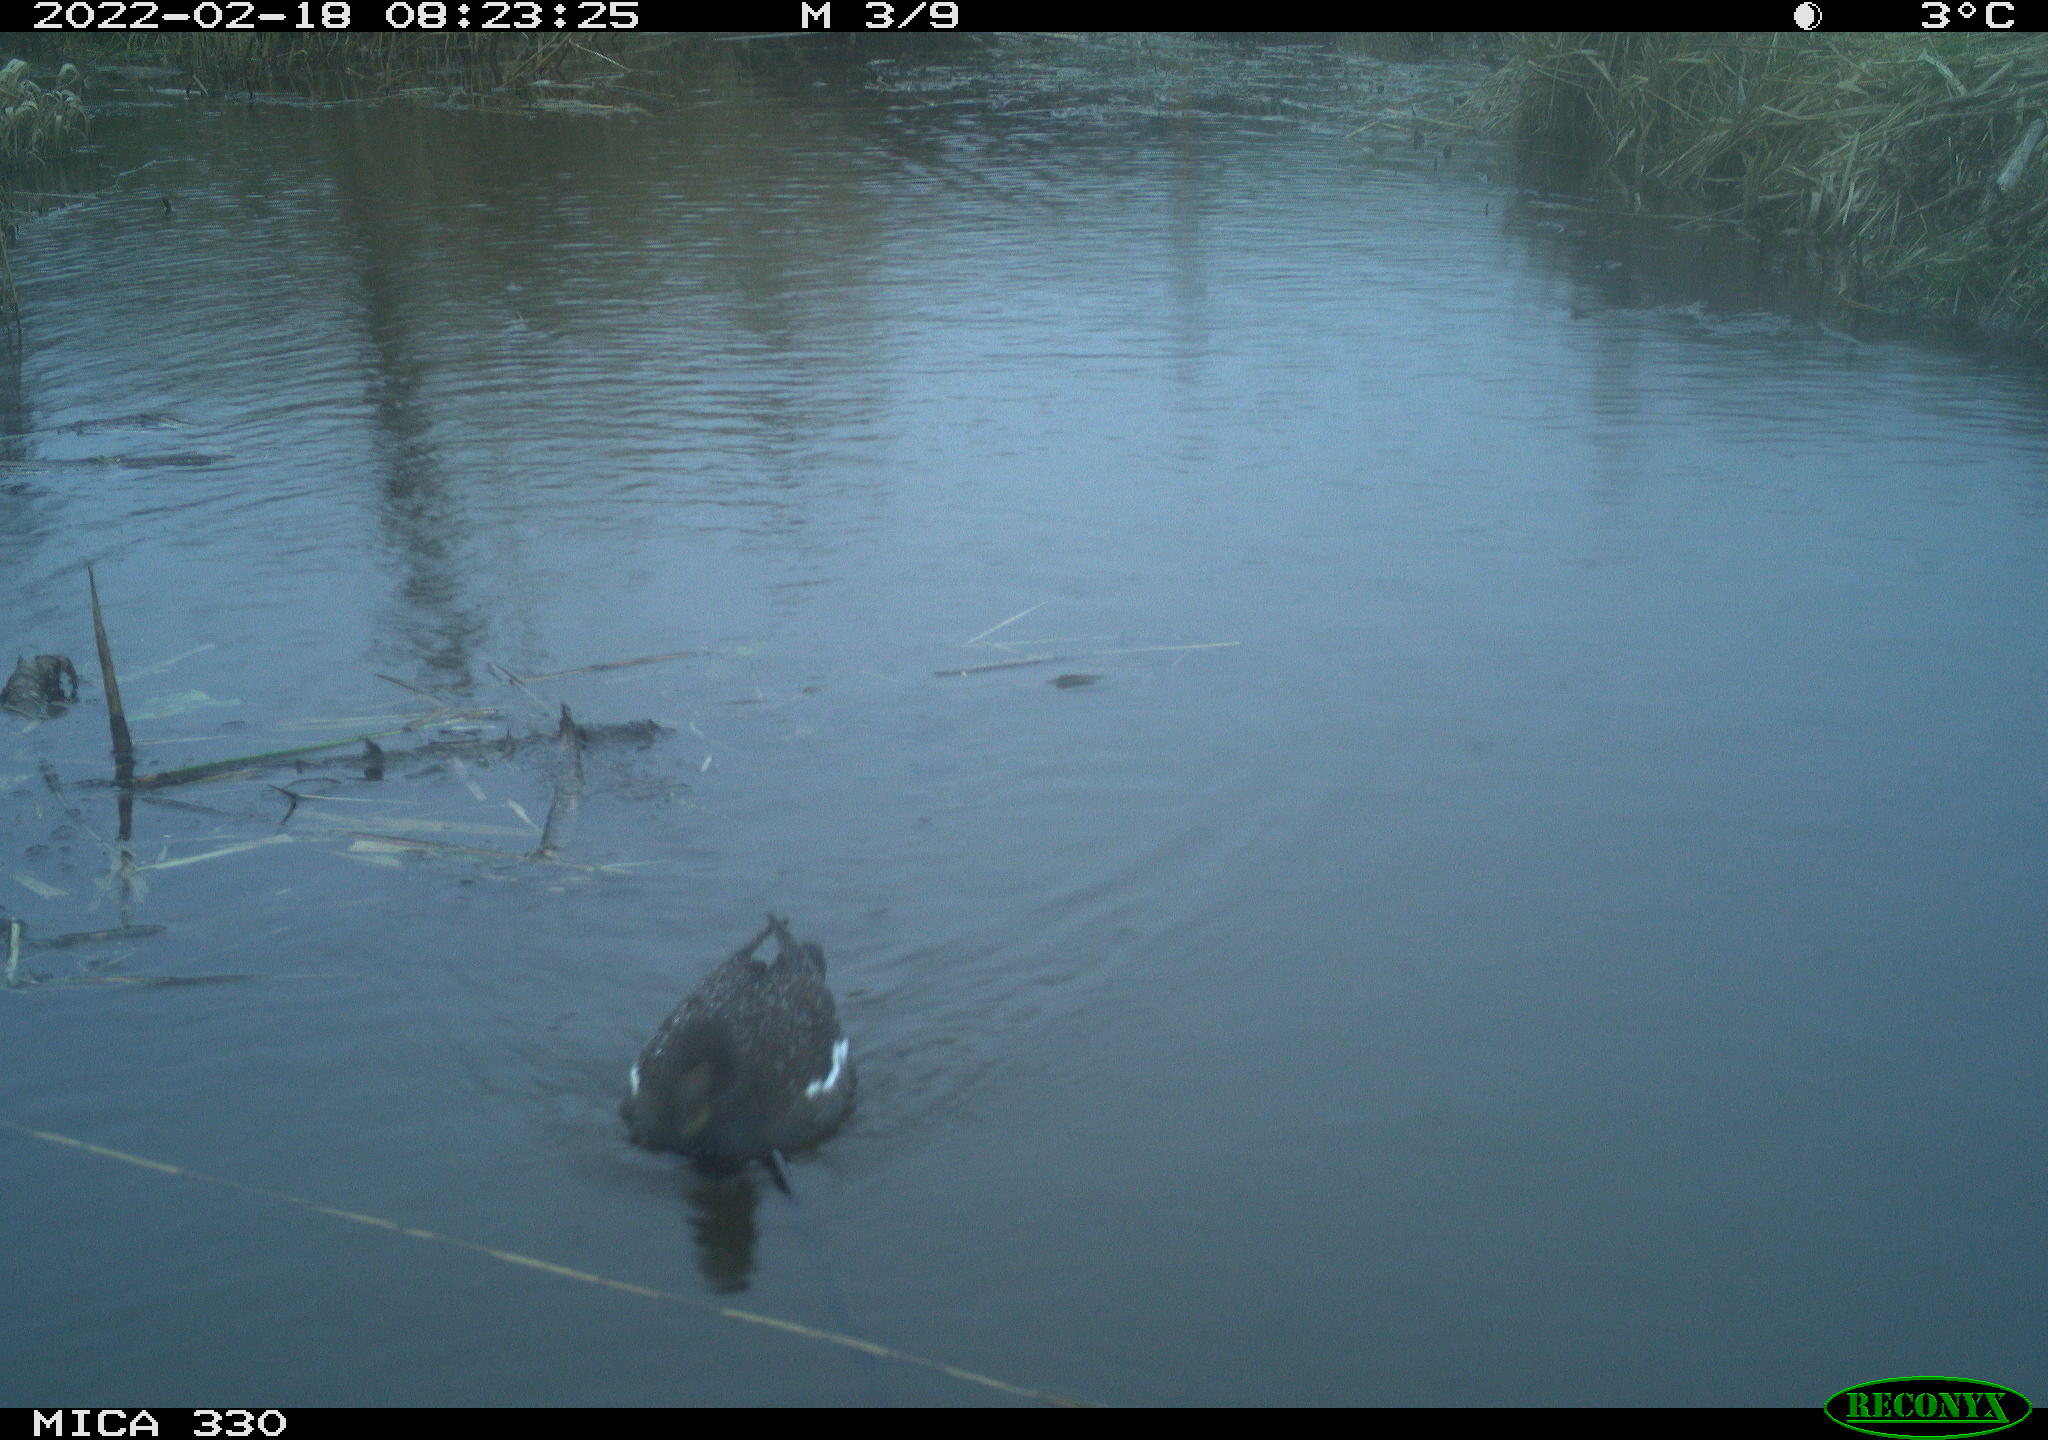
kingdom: Animalia
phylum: Chordata
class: Aves
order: Gruiformes
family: Rallidae
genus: Gallinula
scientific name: Gallinula chloropus
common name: Common moorhen
